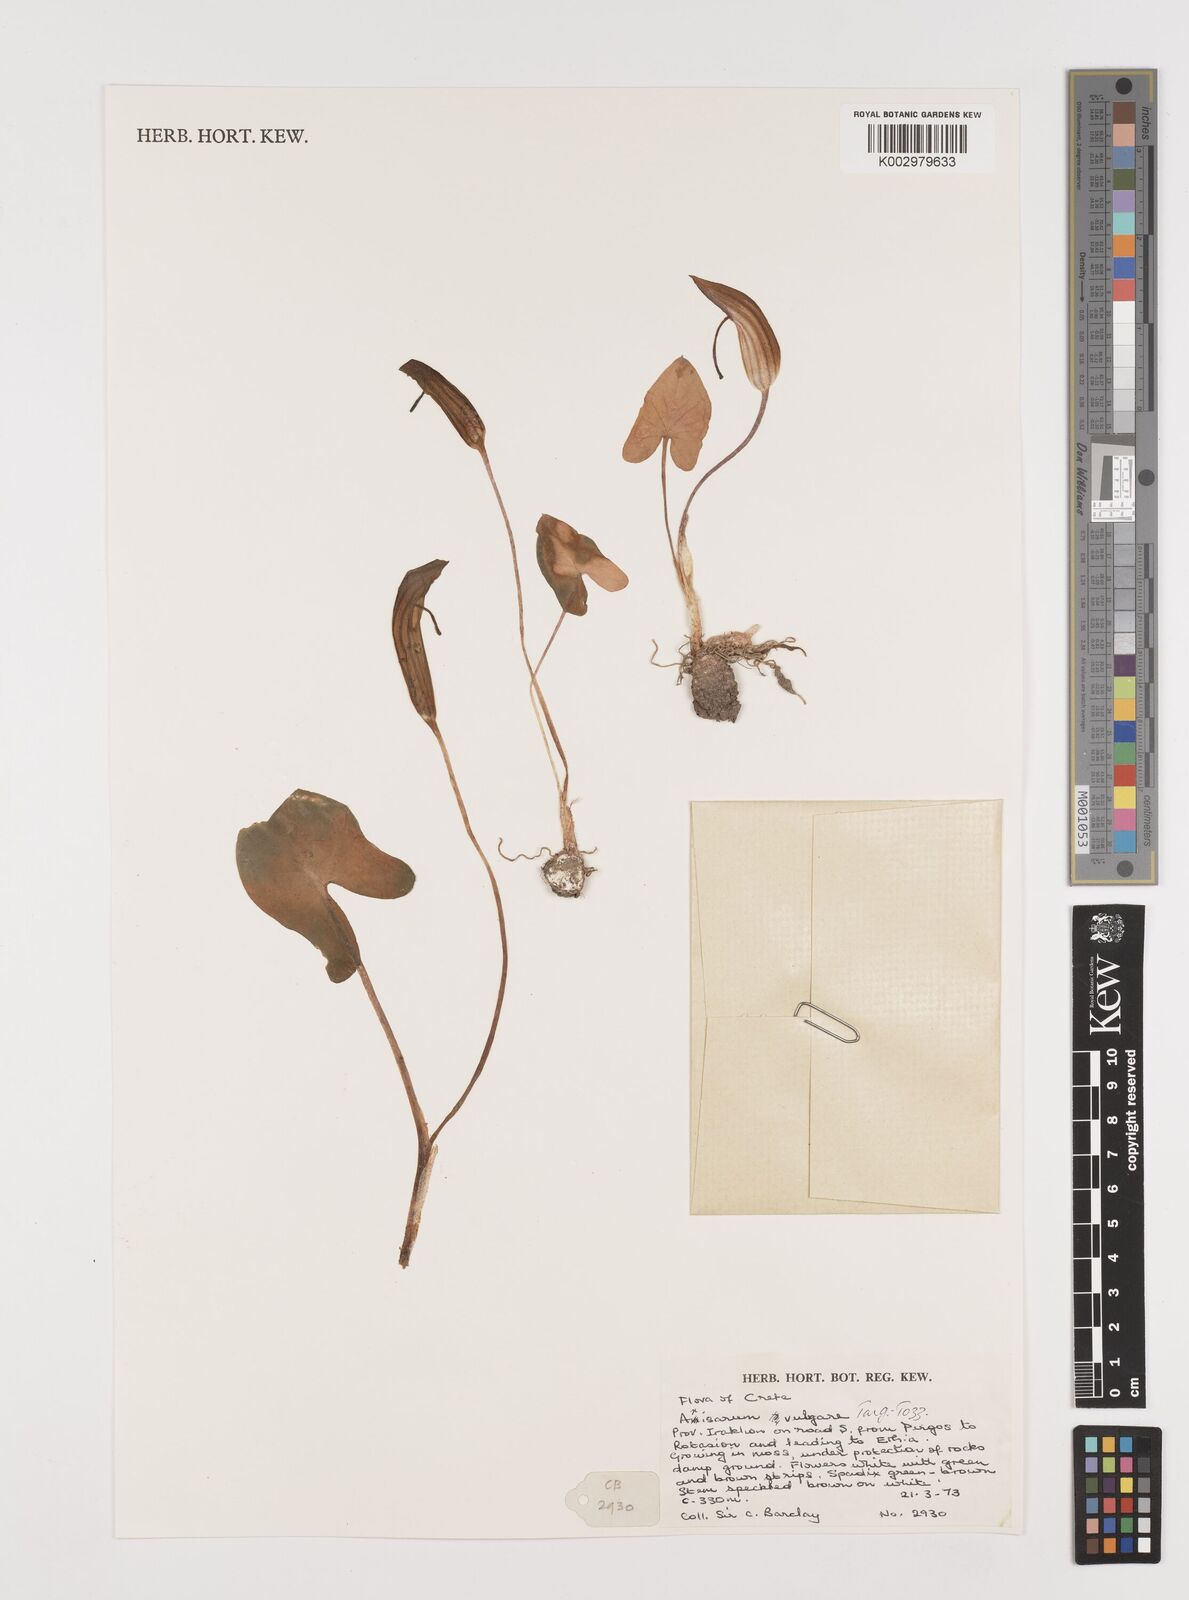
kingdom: Plantae
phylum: Tracheophyta
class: Liliopsida
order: Alismatales
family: Araceae
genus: Arisarum
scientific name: Arisarum vulgare
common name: Common arisarum
